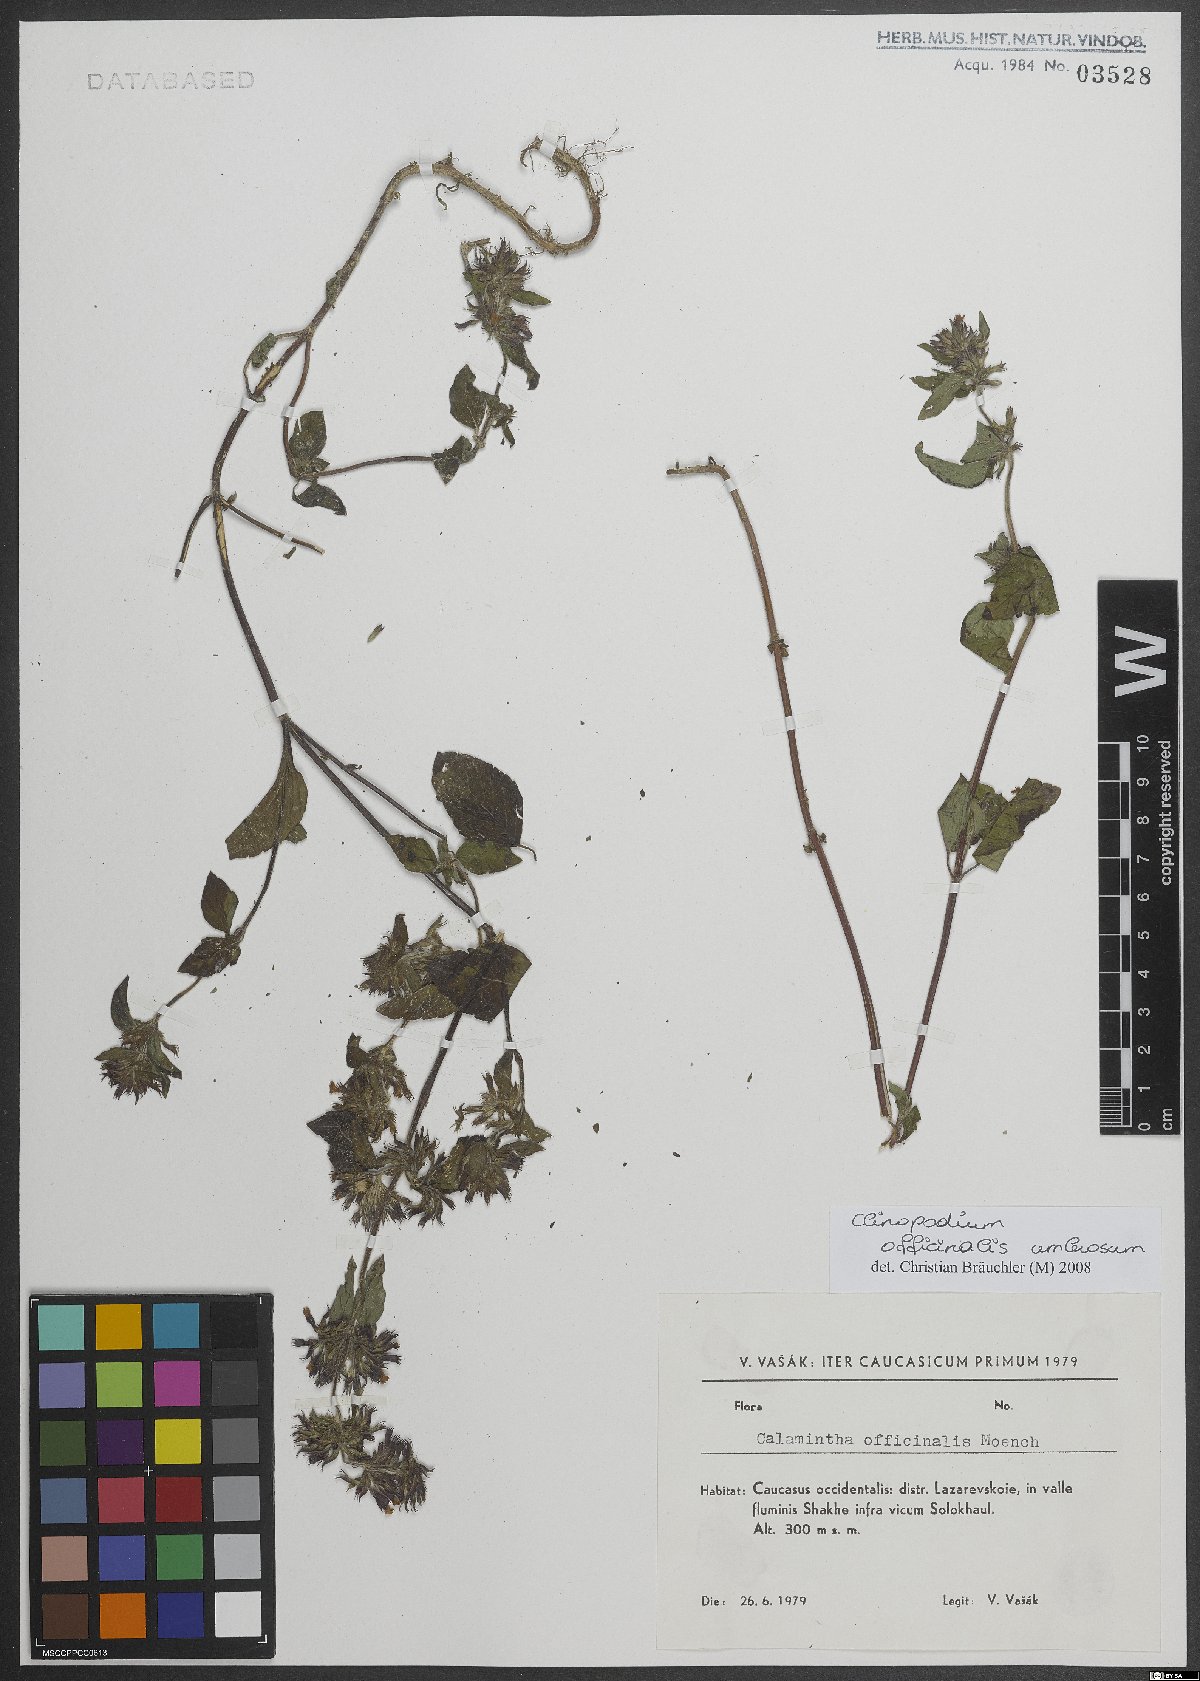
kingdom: Plantae
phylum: Tracheophyta
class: Magnoliopsida
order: Lamiales
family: Lamiaceae
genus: Clinopodium
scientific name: Clinopodium nepeta
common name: Lesser calamint
